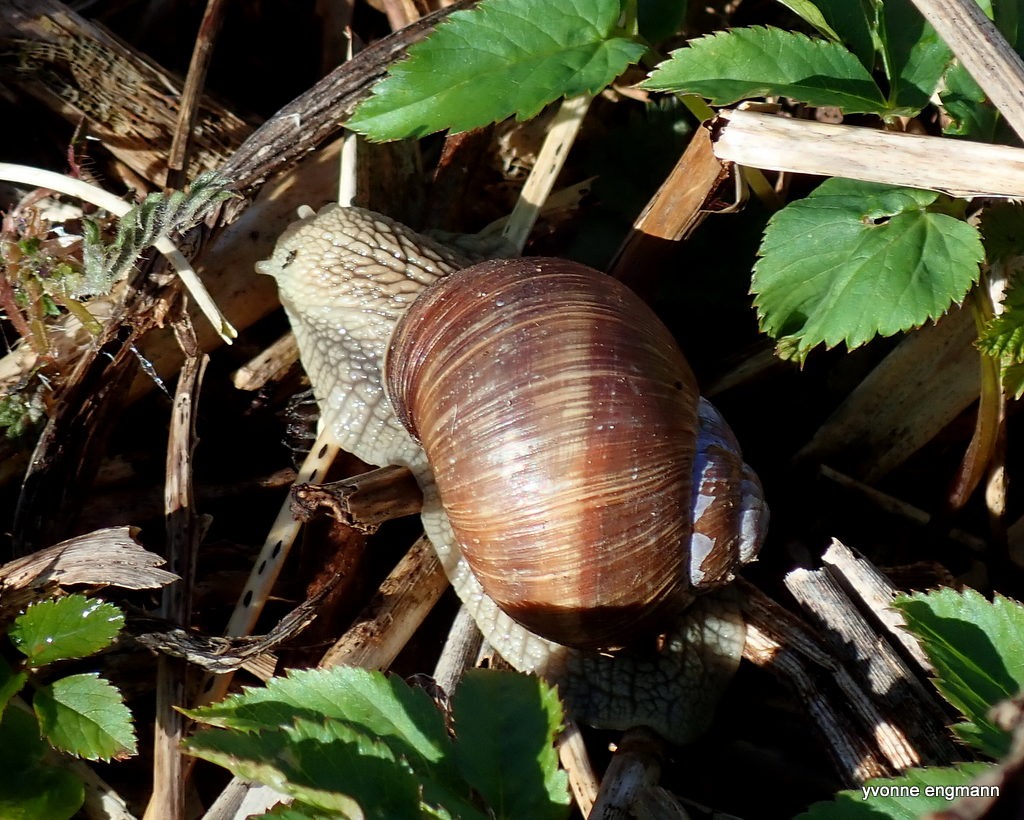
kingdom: Animalia
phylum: Mollusca
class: Gastropoda
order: Stylommatophora
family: Helicidae
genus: Helix
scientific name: Helix pomatia
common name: Vinbjergsnegl
